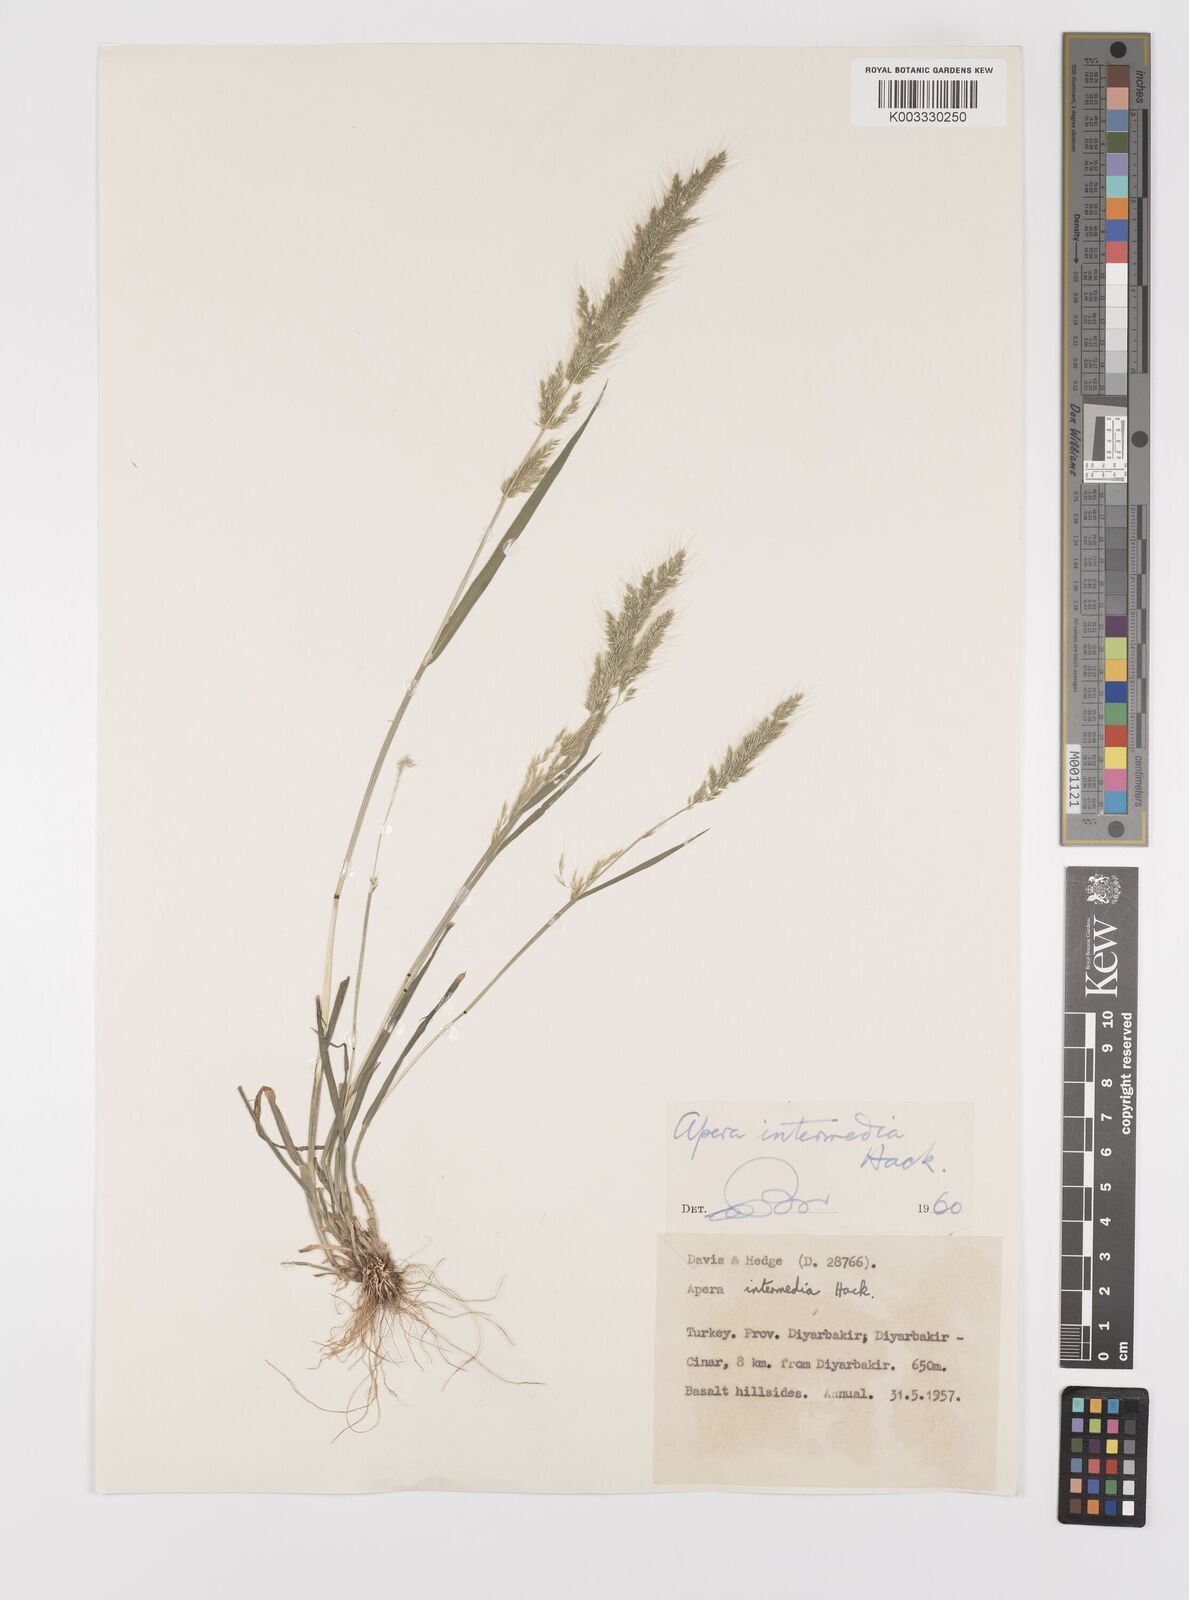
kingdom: Plantae
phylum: Tracheophyta
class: Liliopsida
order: Poales
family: Poaceae
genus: Apera
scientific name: Apera intermedia
